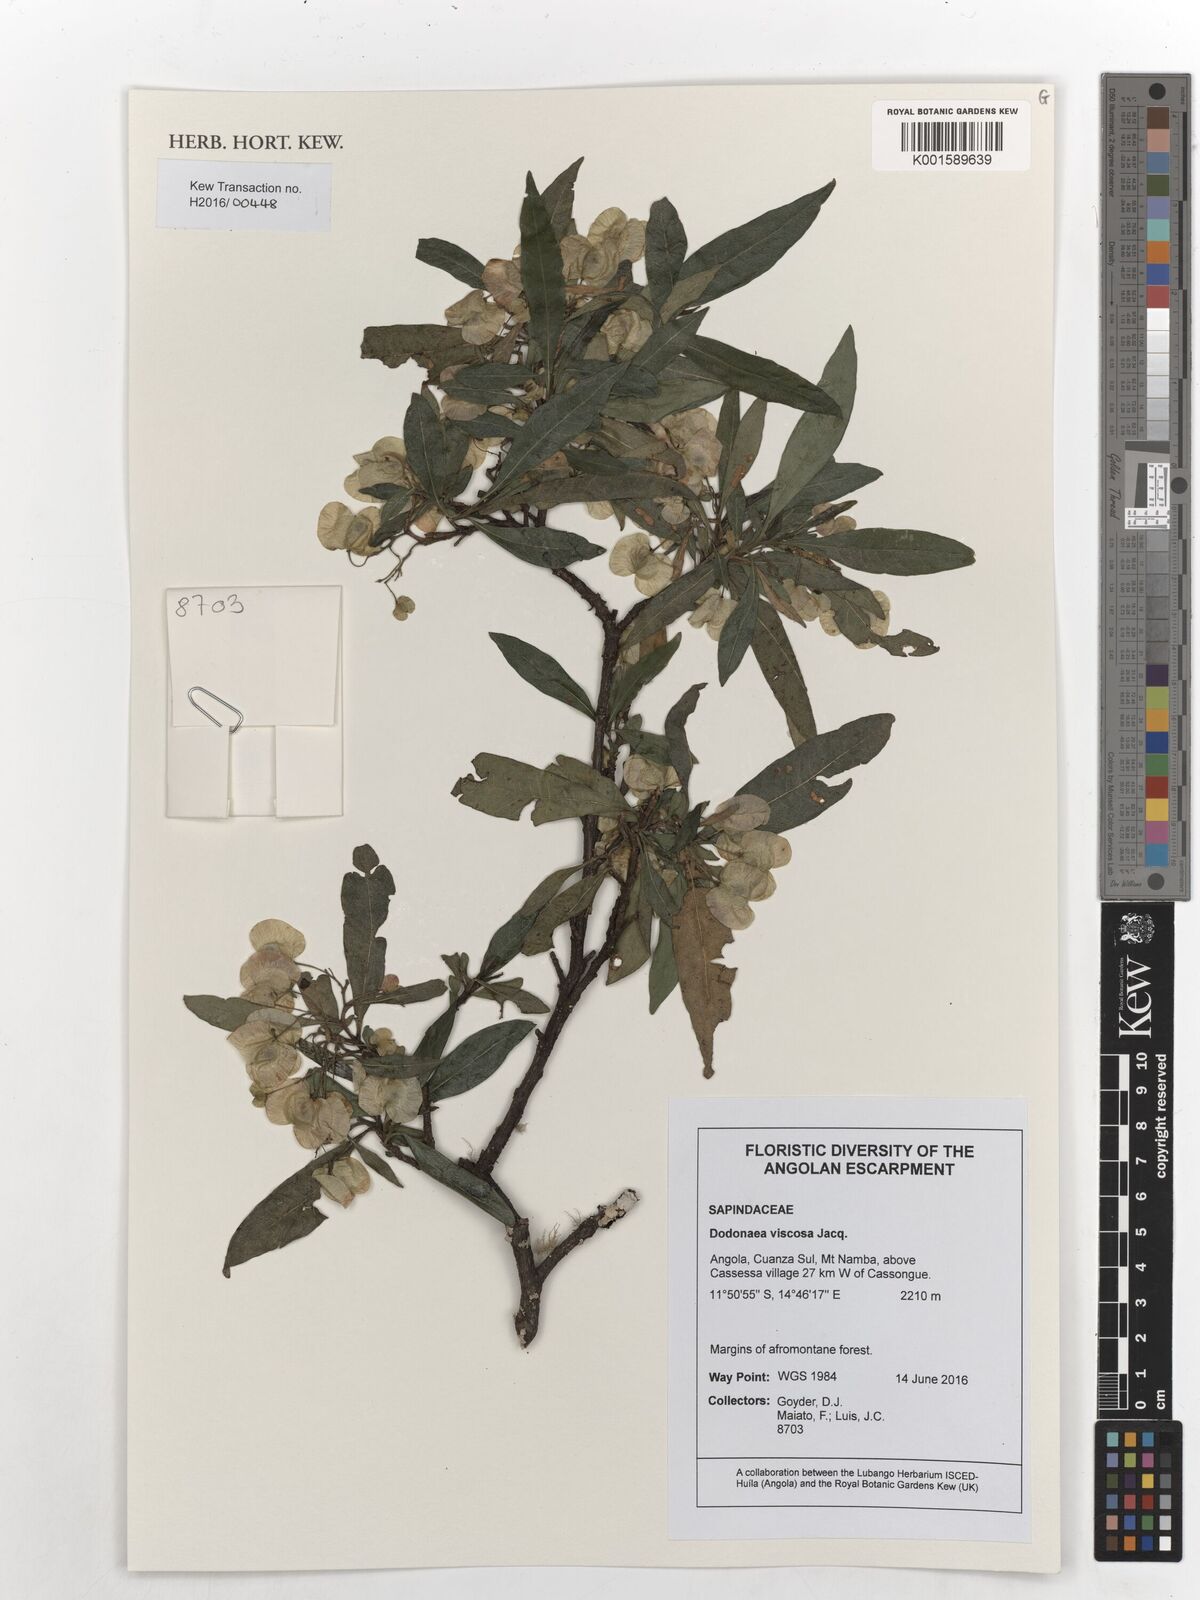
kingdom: Plantae
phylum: Tracheophyta
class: Magnoliopsida
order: Sapindales
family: Sapindaceae
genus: Dodonaea
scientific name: Dodonaea viscosa
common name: Hopbush
